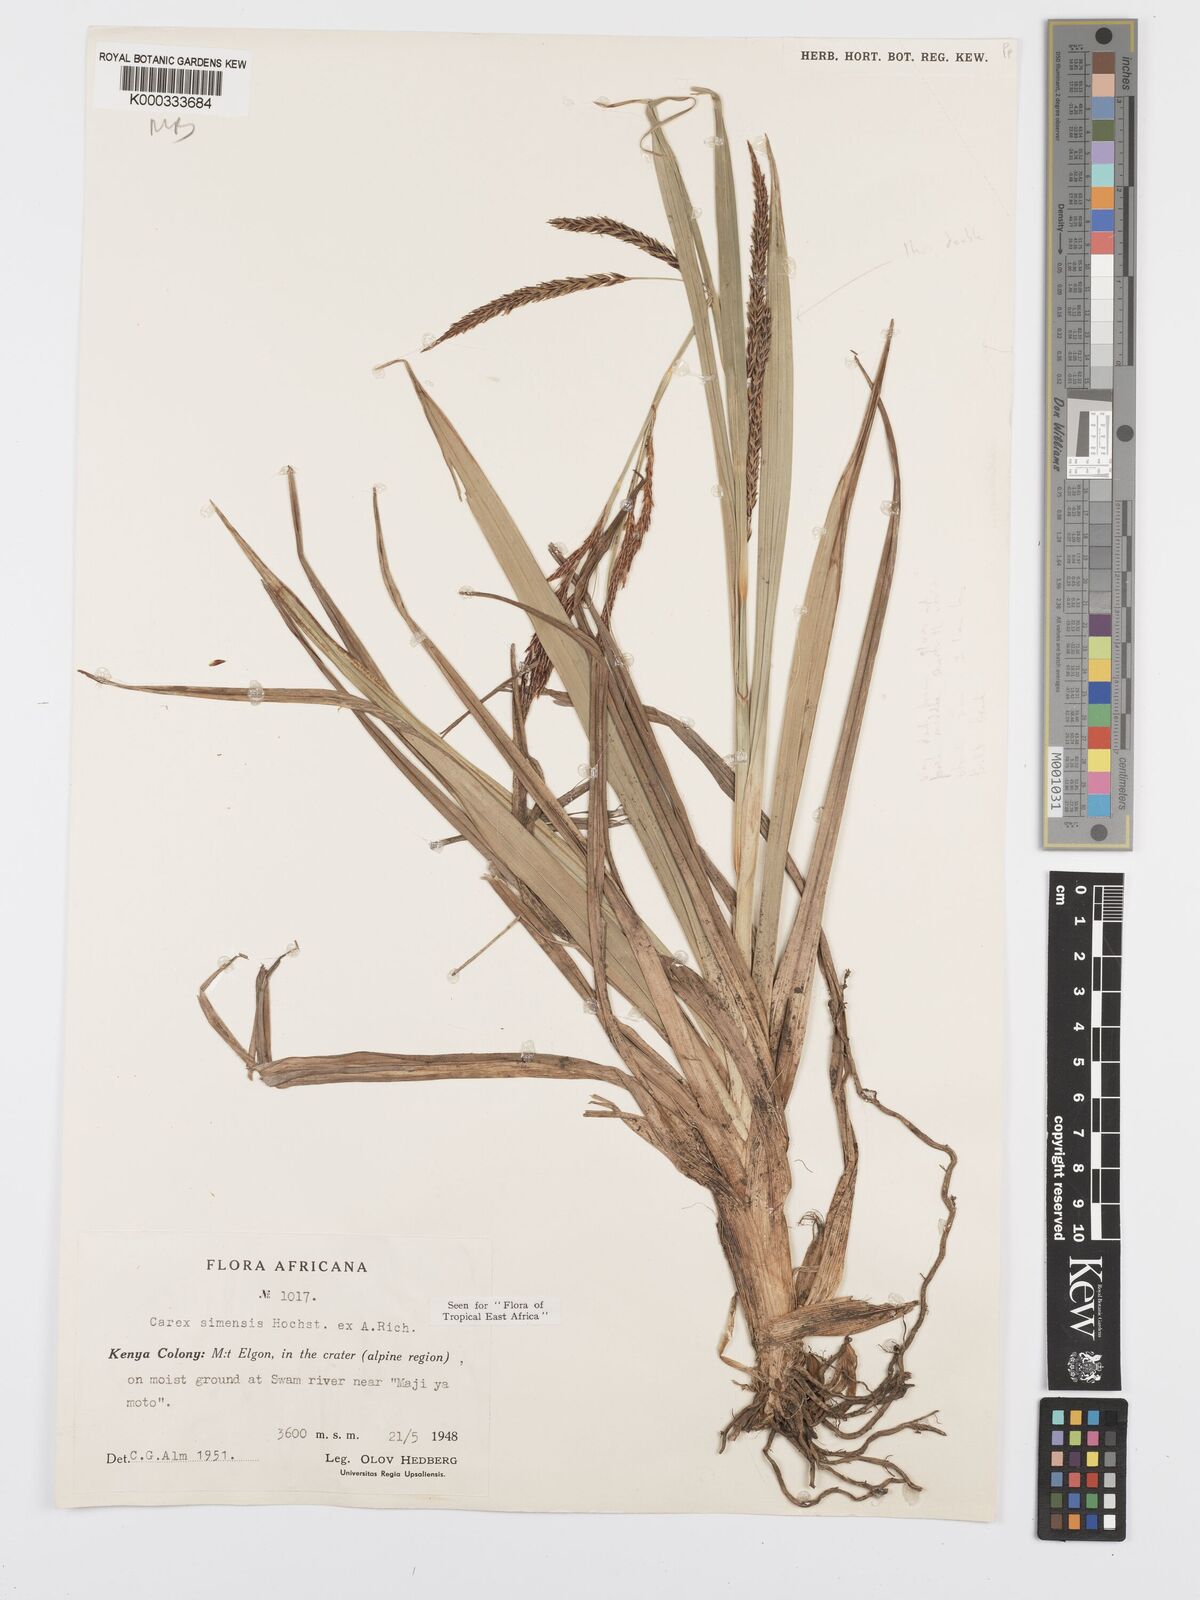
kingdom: Plantae
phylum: Tracheophyta
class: Liliopsida
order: Poales
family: Cyperaceae
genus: Carex
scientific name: Carex simensis
